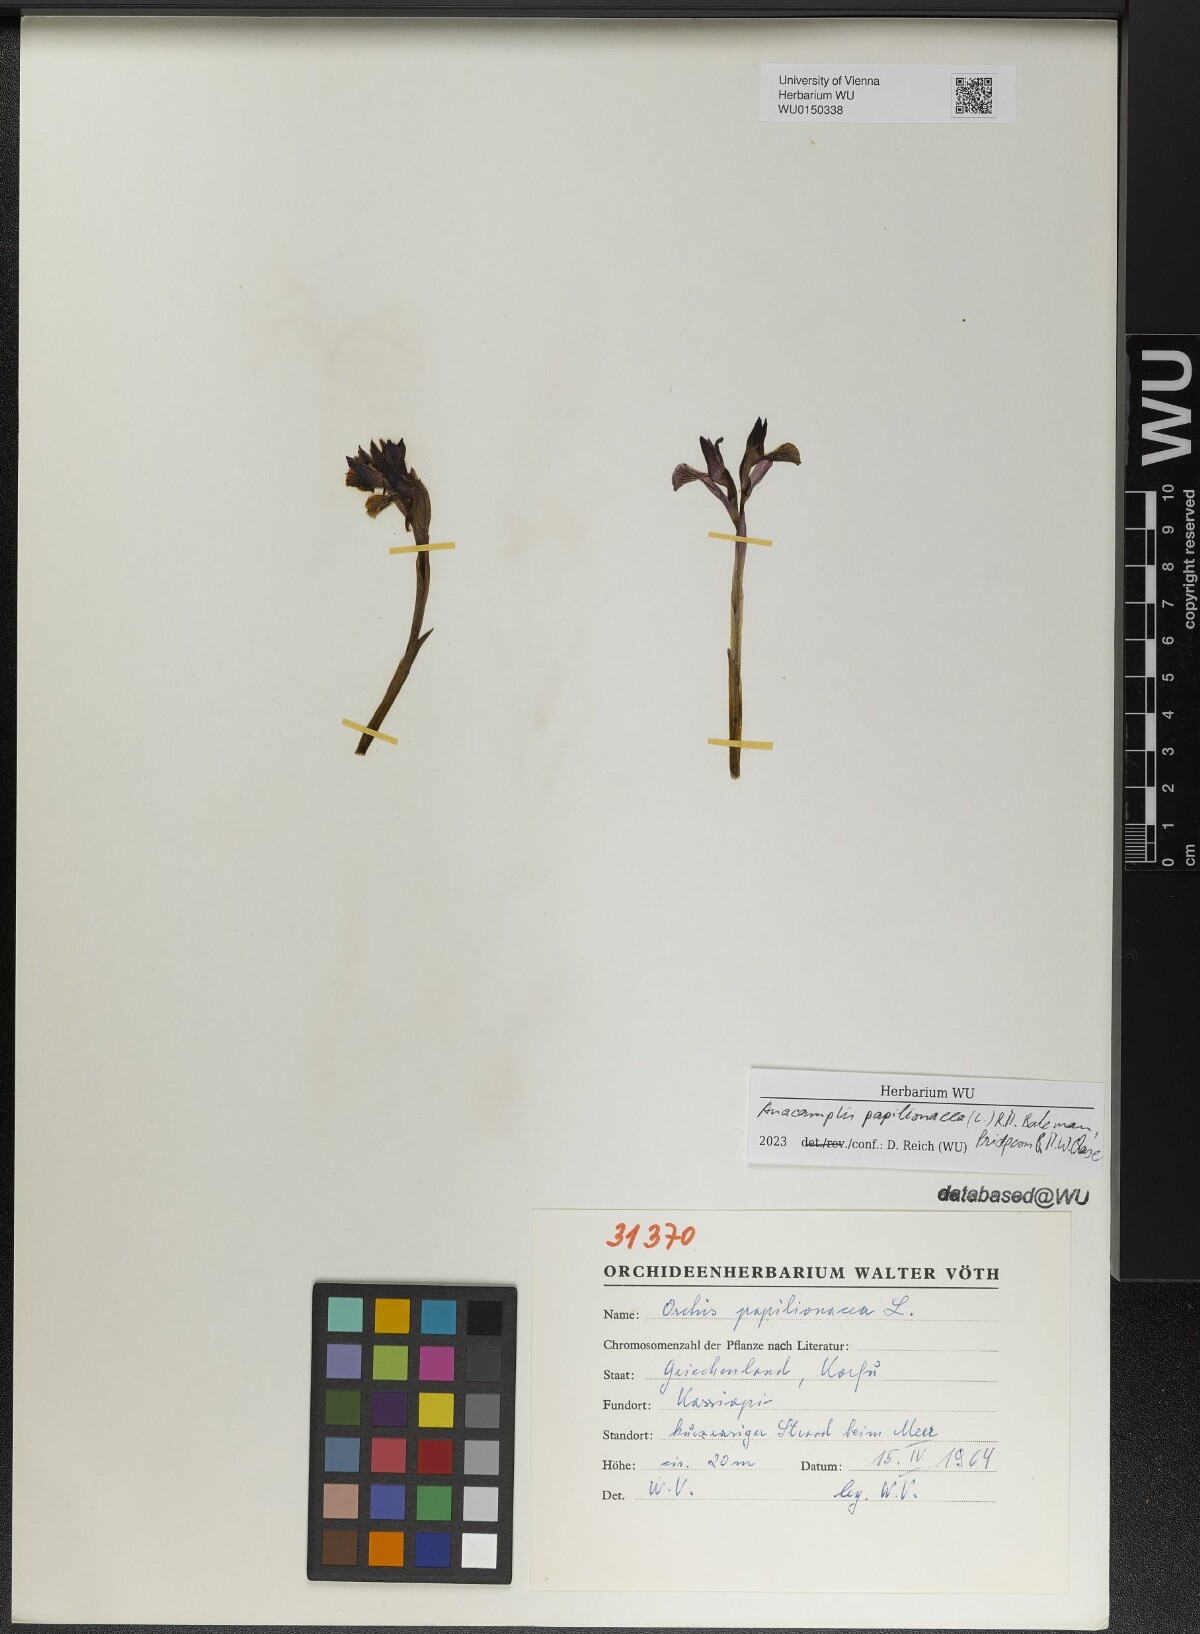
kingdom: Plantae
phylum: Tracheophyta
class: Liliopsida
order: Asparagales
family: Orchidaceae
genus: Anacamptis
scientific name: Anacamptis papilionacea
